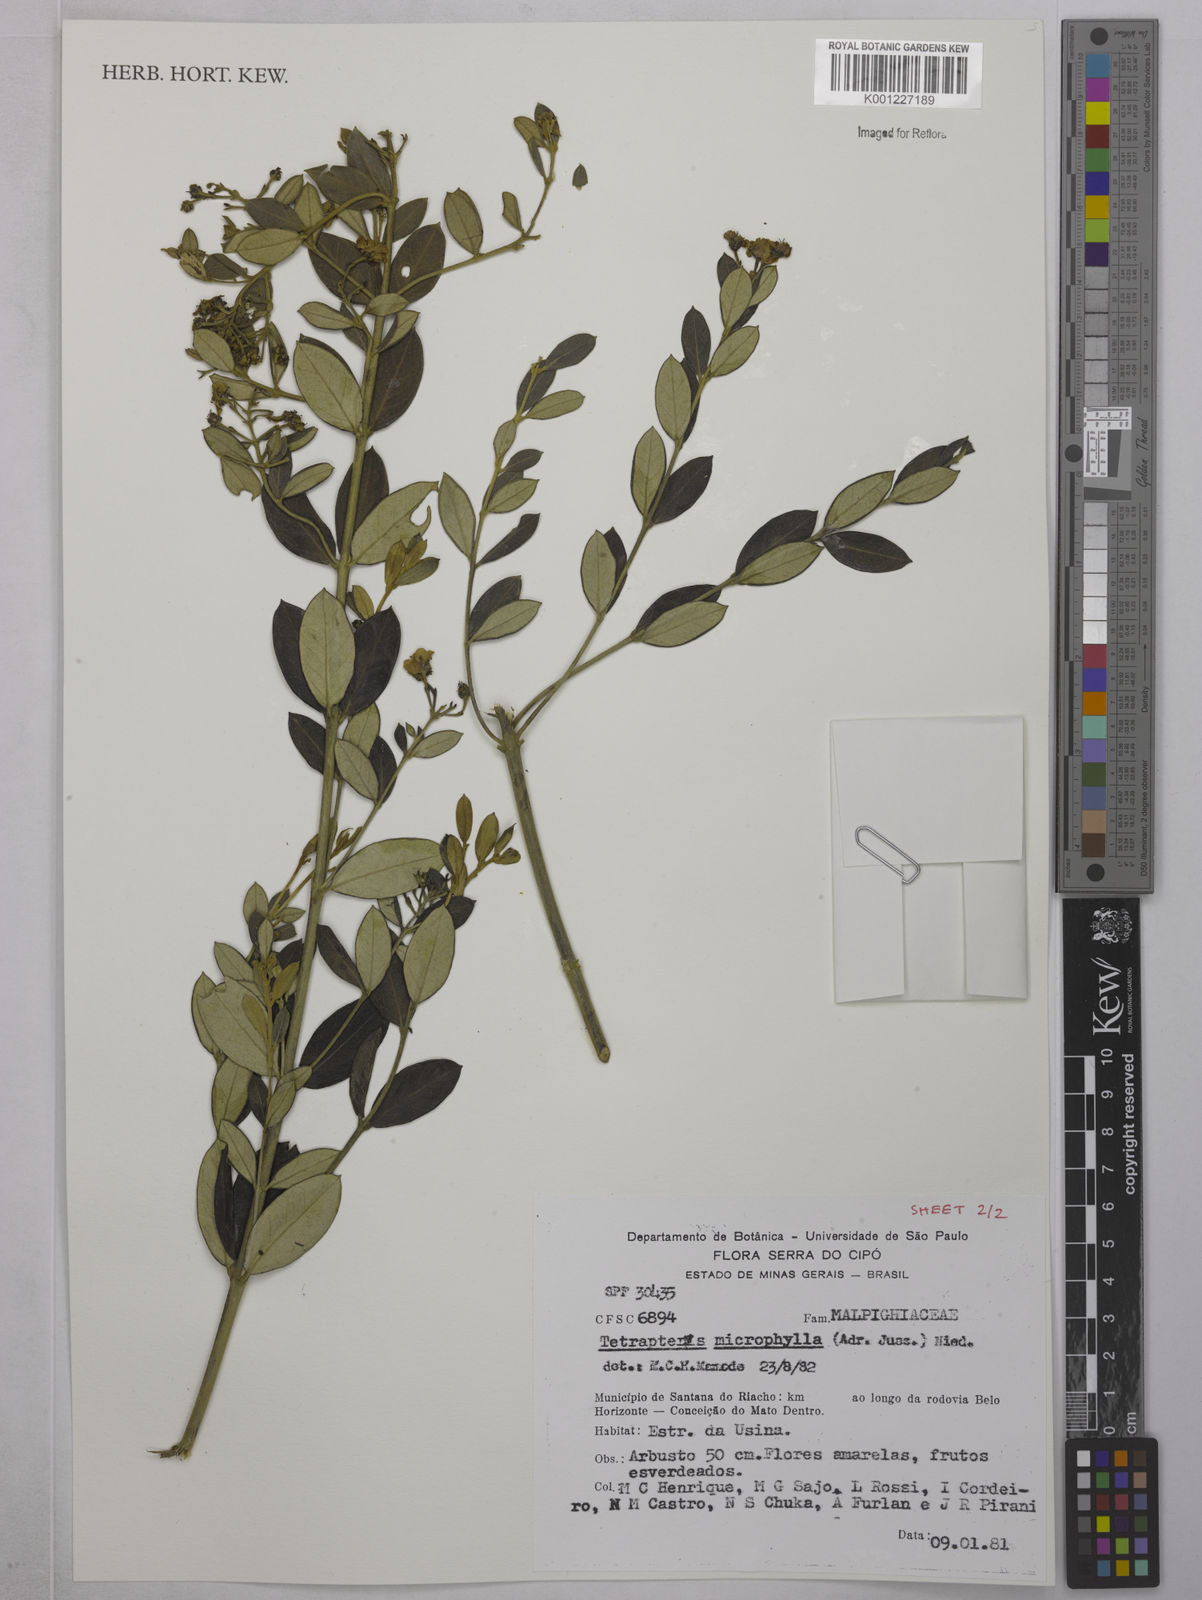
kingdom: Plantae
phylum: Tracheophyta
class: Magnoliopsida
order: Malpighiales
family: Malpighiaceae
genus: Glicophyllum
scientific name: Glicophyllum microphyllum
